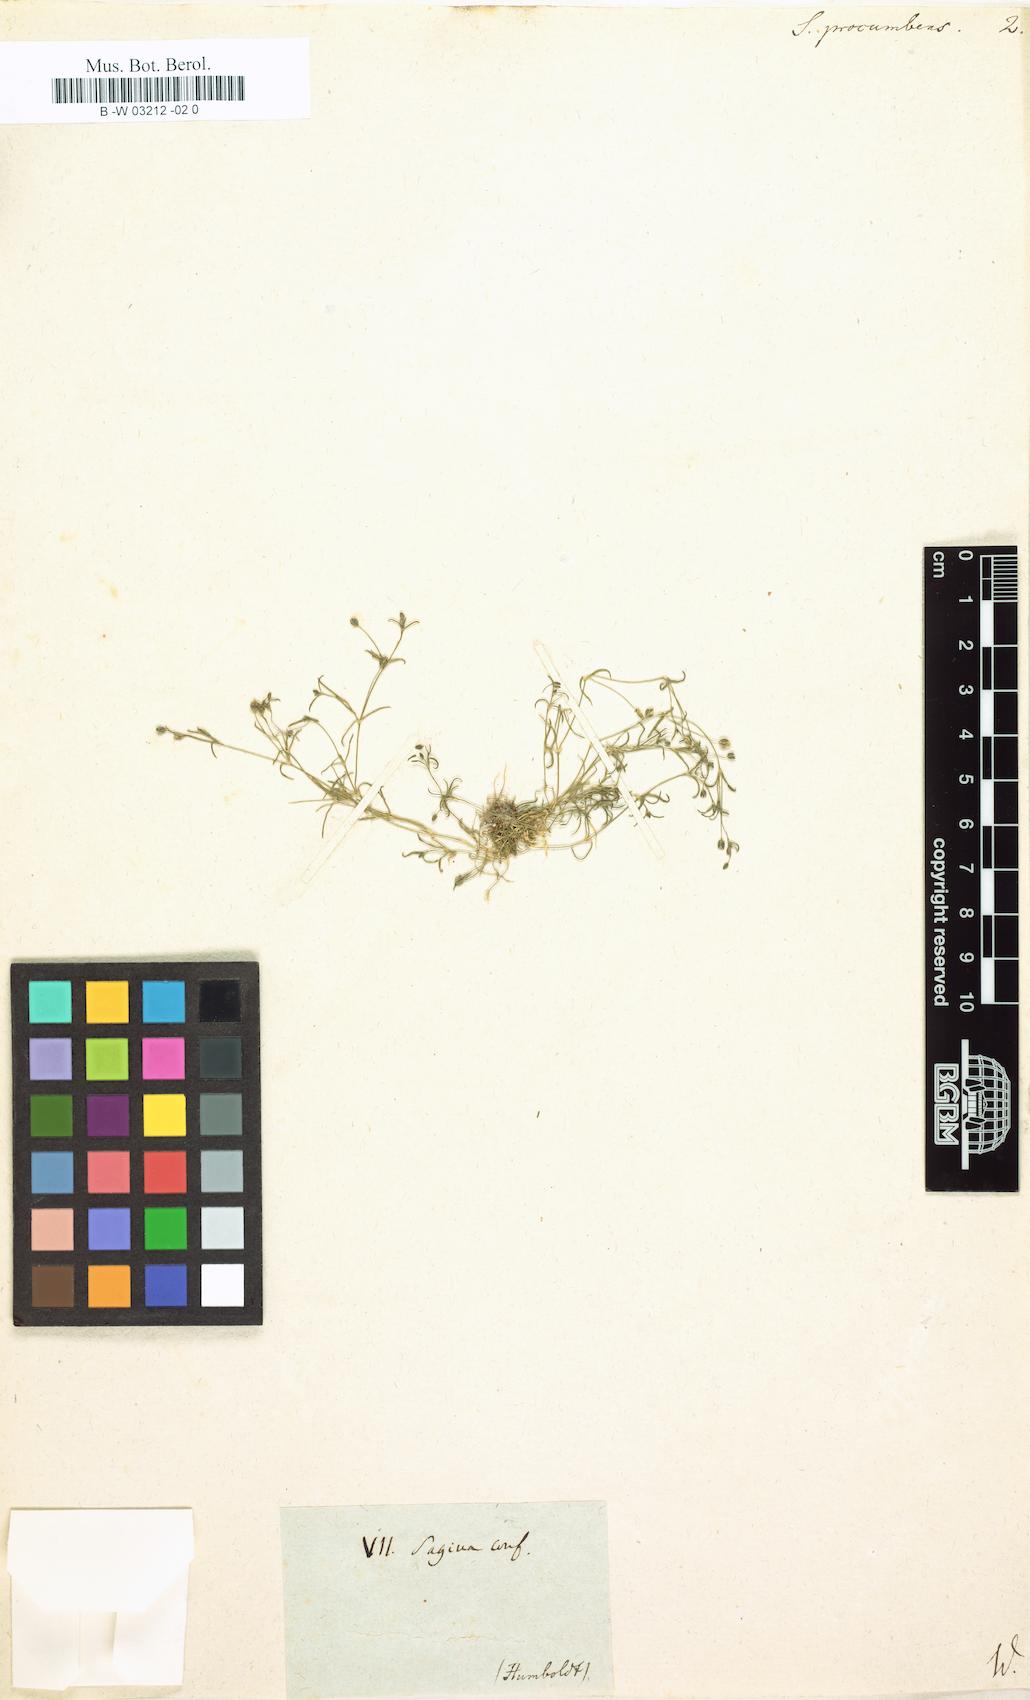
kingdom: Plantae
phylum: Tracheophyta
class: Magnoliopsida
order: Caryophyllales
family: Caryophyllaceae
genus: Sagina
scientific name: Sagina procumbens
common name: Procumbent pearlwort
